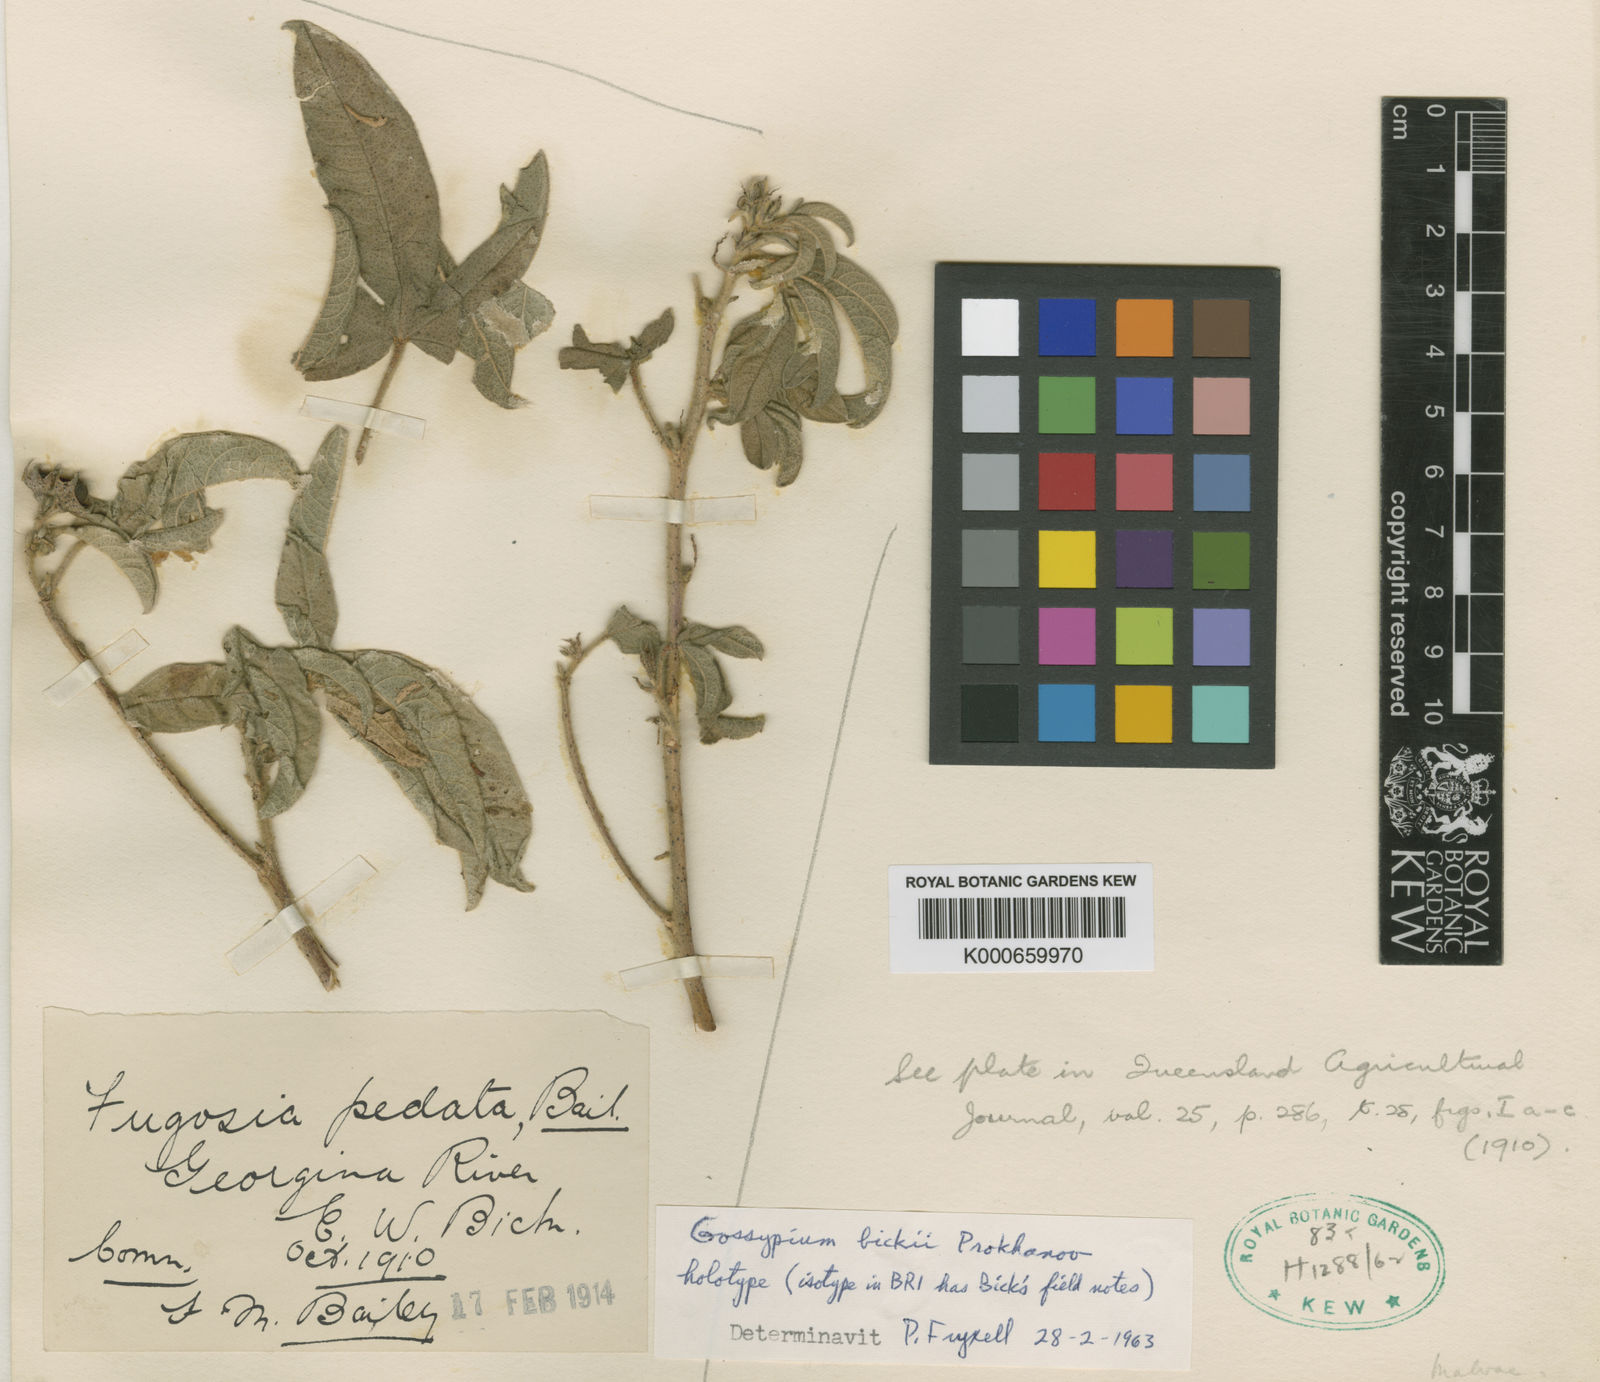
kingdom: Plantae
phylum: Tracheophyta
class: Magnoliopsida
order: Malvales
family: Malvaceae
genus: Gossypium
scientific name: Gossypium bickii
